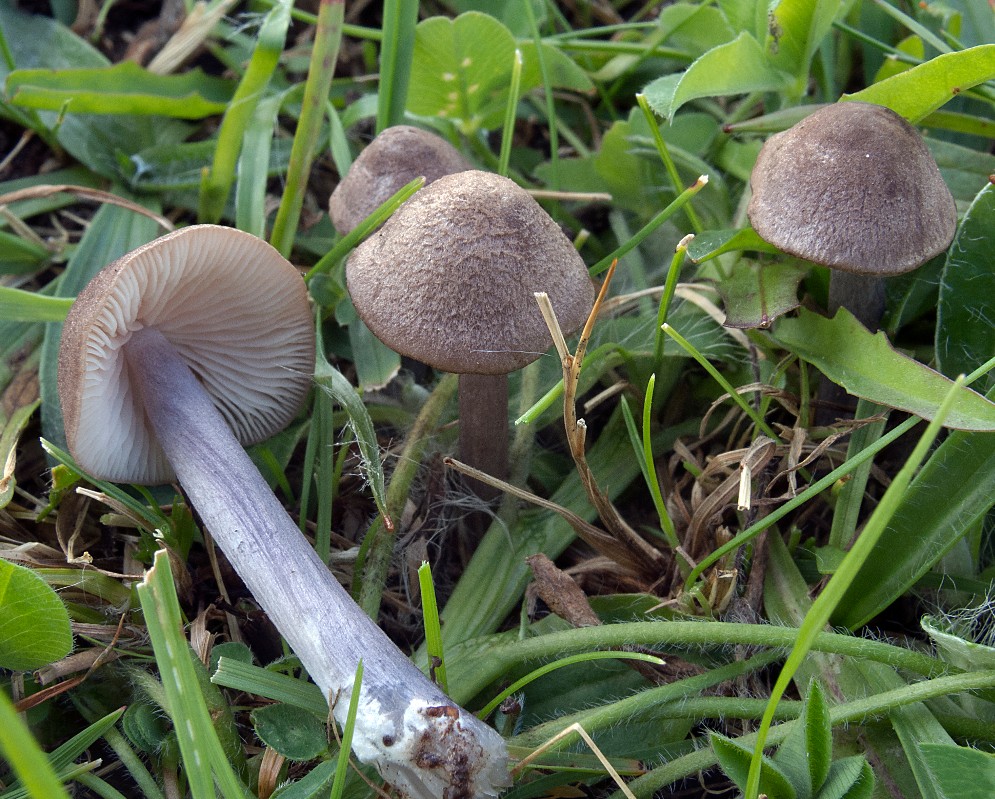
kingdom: Fungi
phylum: Basidiomycota
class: Agaricomycetes
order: Agaricales
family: Entolomataceae
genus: Entoloma
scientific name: Entoloma griseocyaneum
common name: gråblå rødblad
